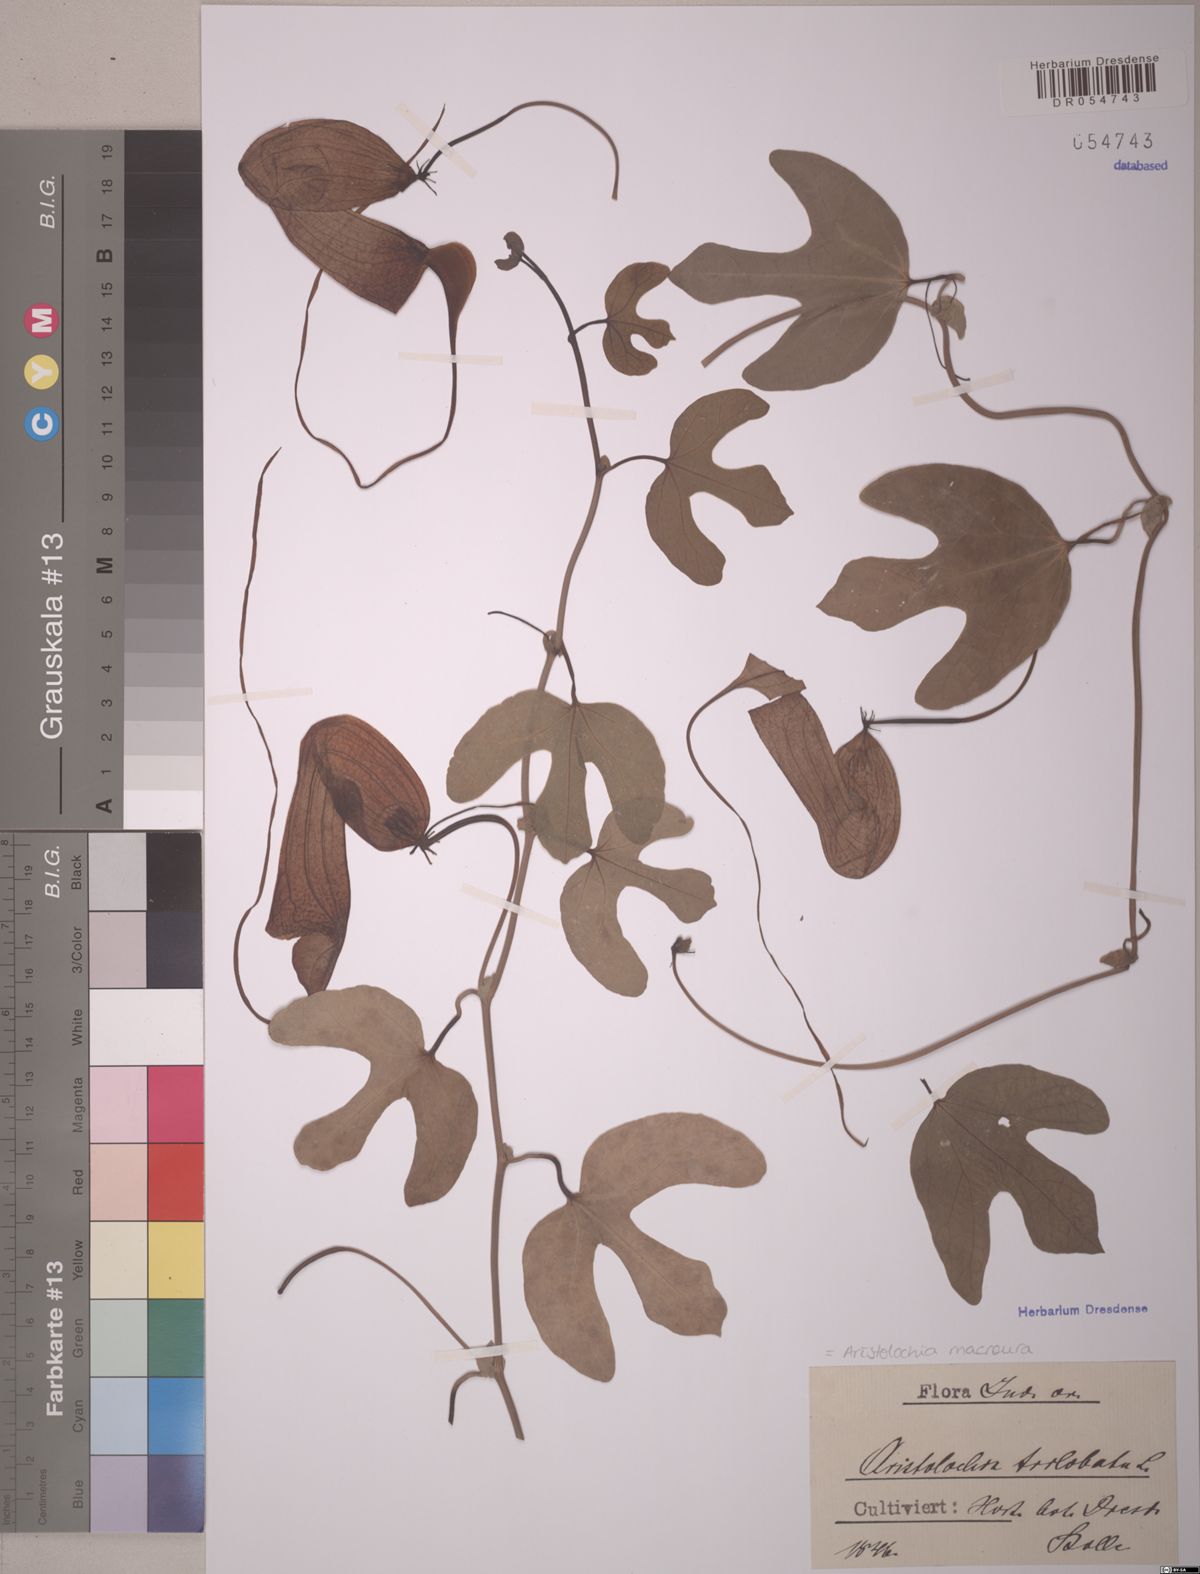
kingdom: Plantae
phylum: Tracheophyta
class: Magnoliopsida
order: Piperales
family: Aristolochiaceae
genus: Aristolochia
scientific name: Aristolochia macroura
